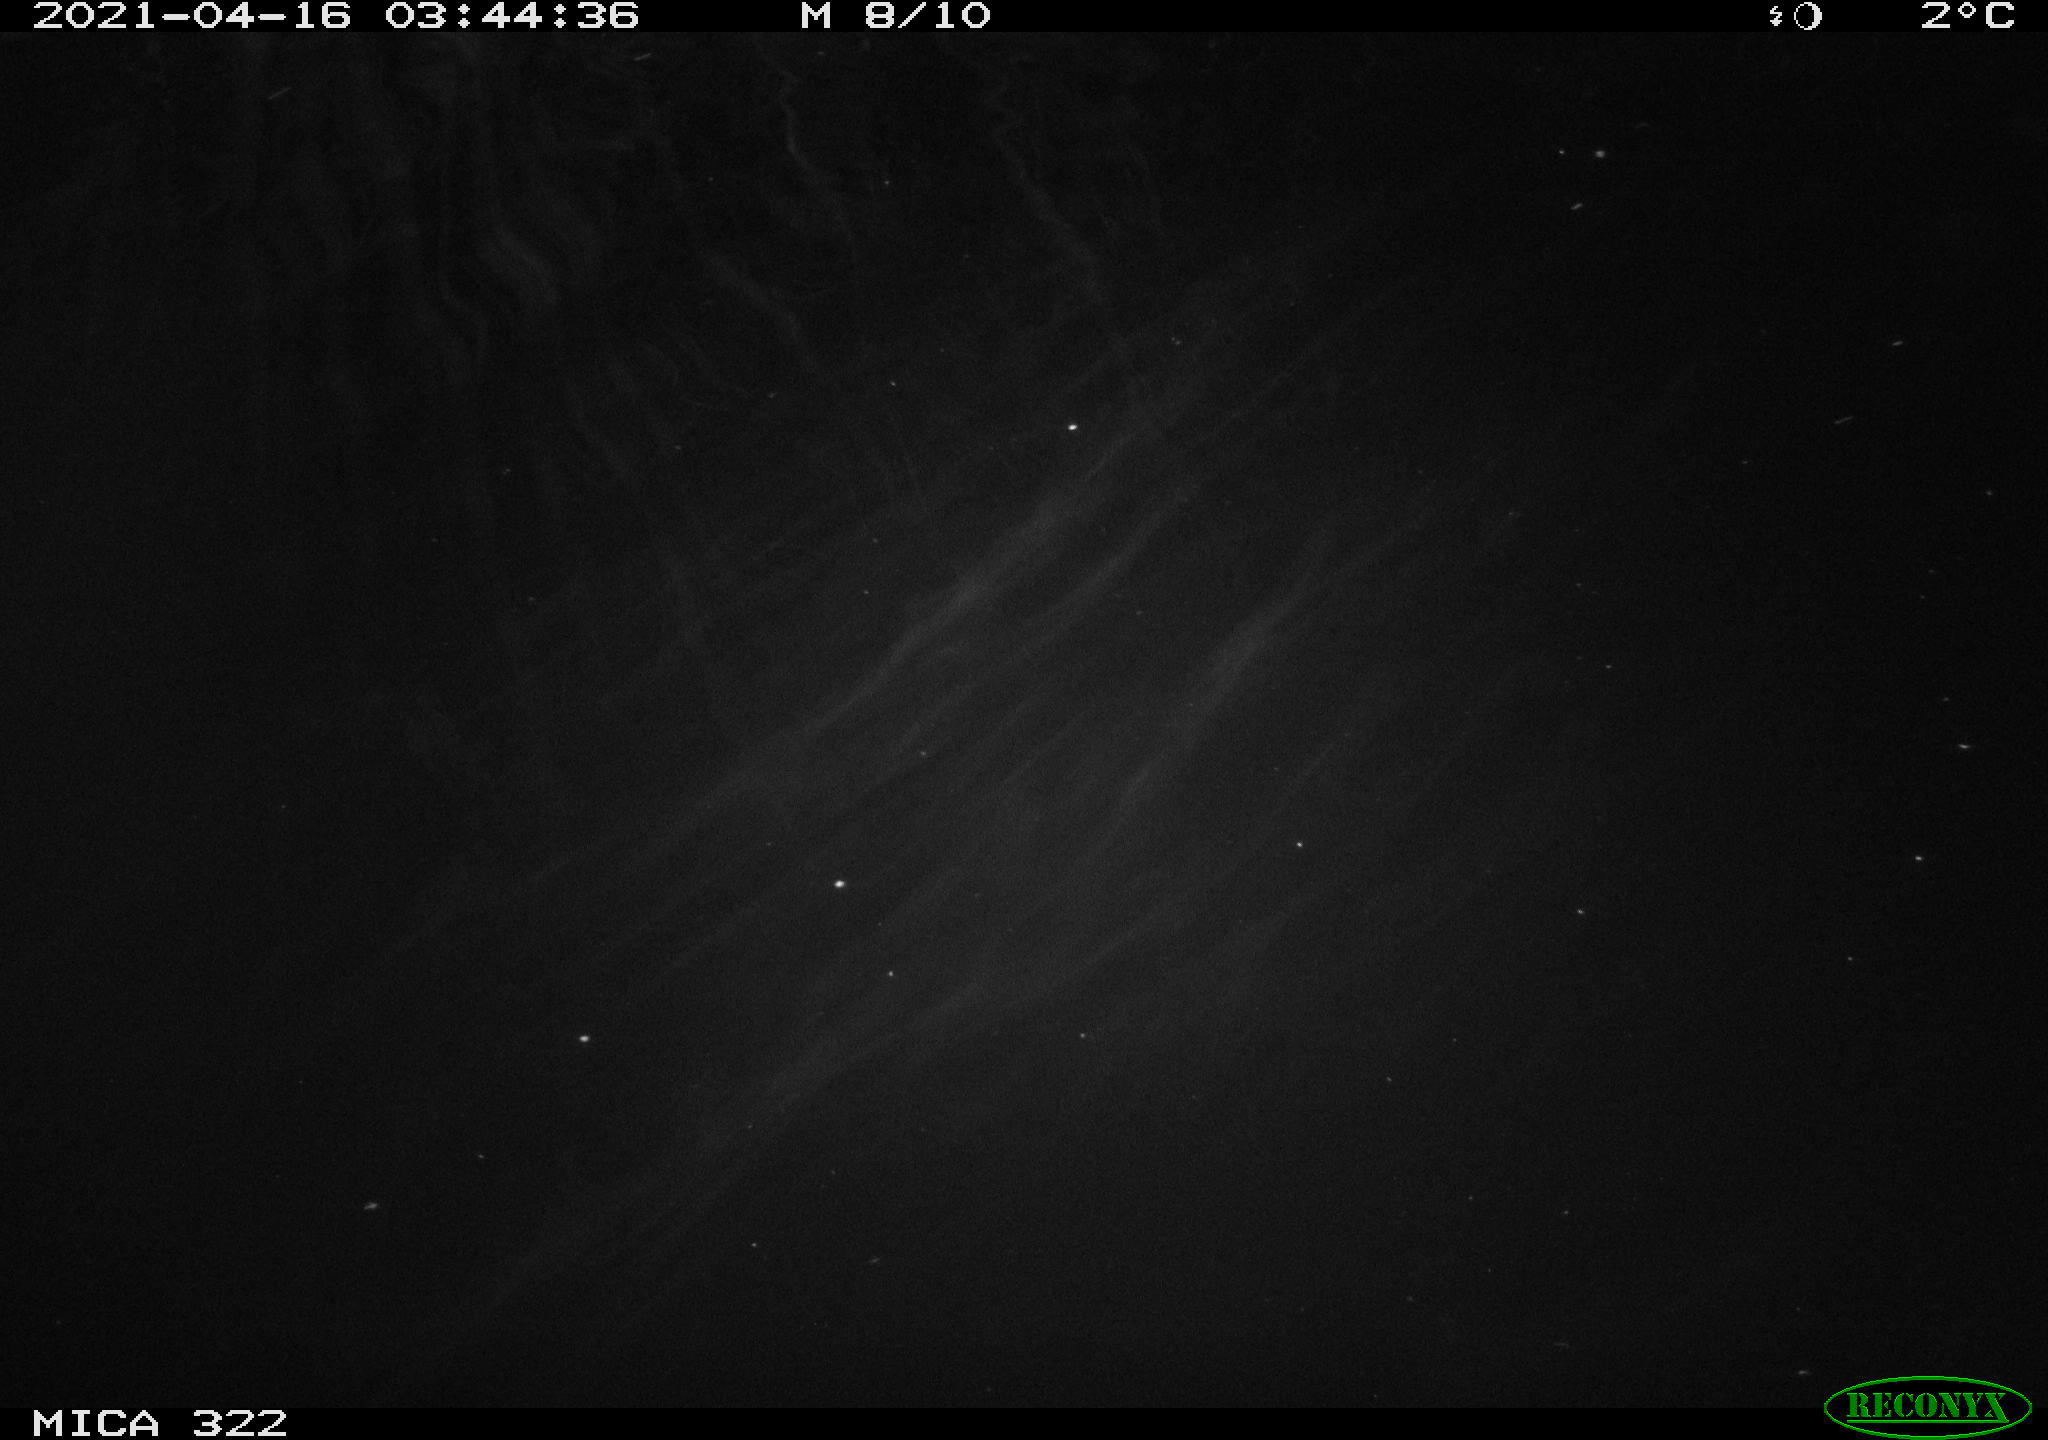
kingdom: Animalia
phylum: Chordata
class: Aves
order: Anseriformes
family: Anatidae
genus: Anas
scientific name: Anas platyrhynchos
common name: Mallard
